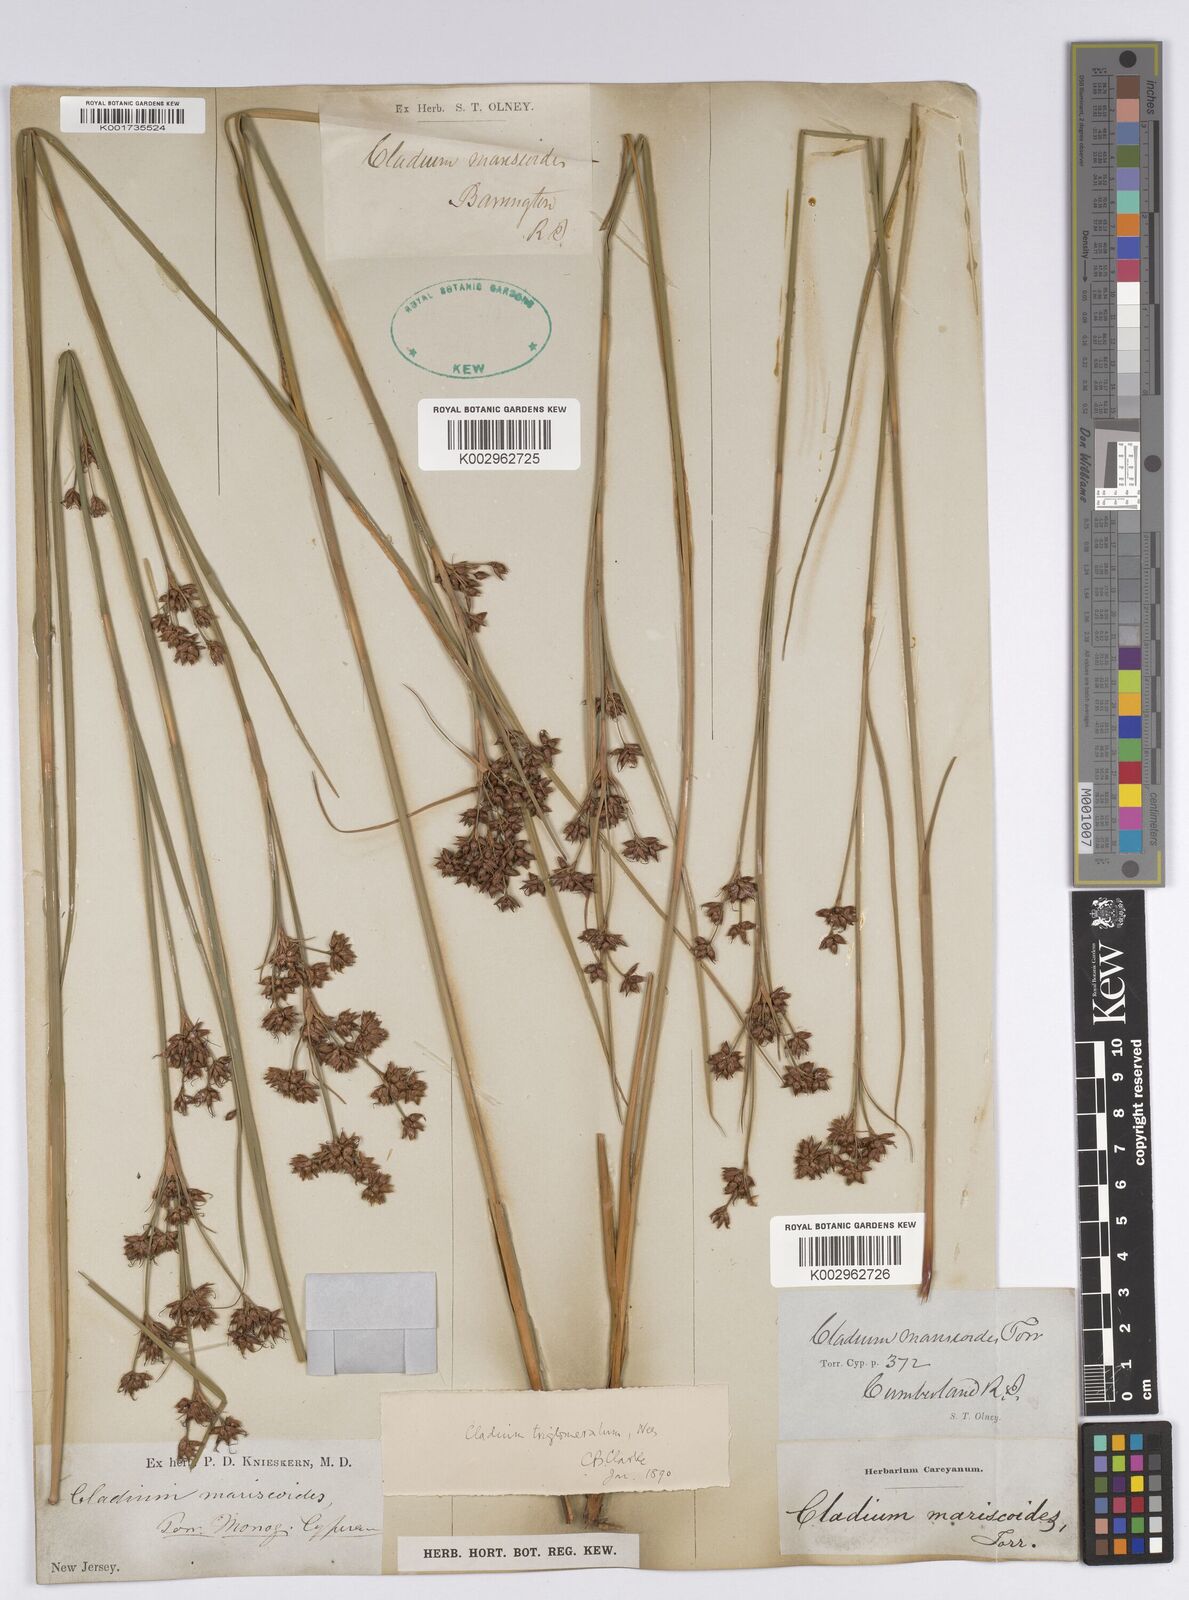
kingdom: Plantae
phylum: Tracheophyta
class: Liliopsida
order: Poales
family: Cyperaceae
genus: Cladium
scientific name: Cladium mariscoides
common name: Smooth sawgrass
